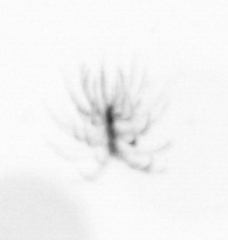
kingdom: Chromista
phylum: Ochrophyta
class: Bacillariophyceae
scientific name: Bacillariophyceae
